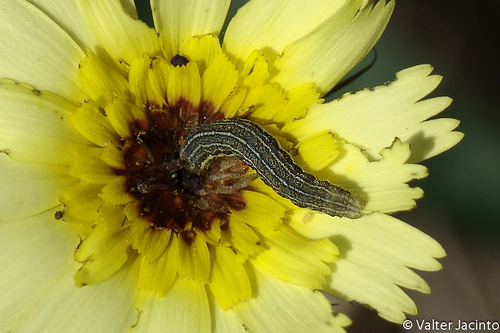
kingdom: Animalia
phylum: Arthropoda
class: Insecta
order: Lepidoptera
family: Noctuidae
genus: Agrochola
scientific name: Agrochola haematidea
